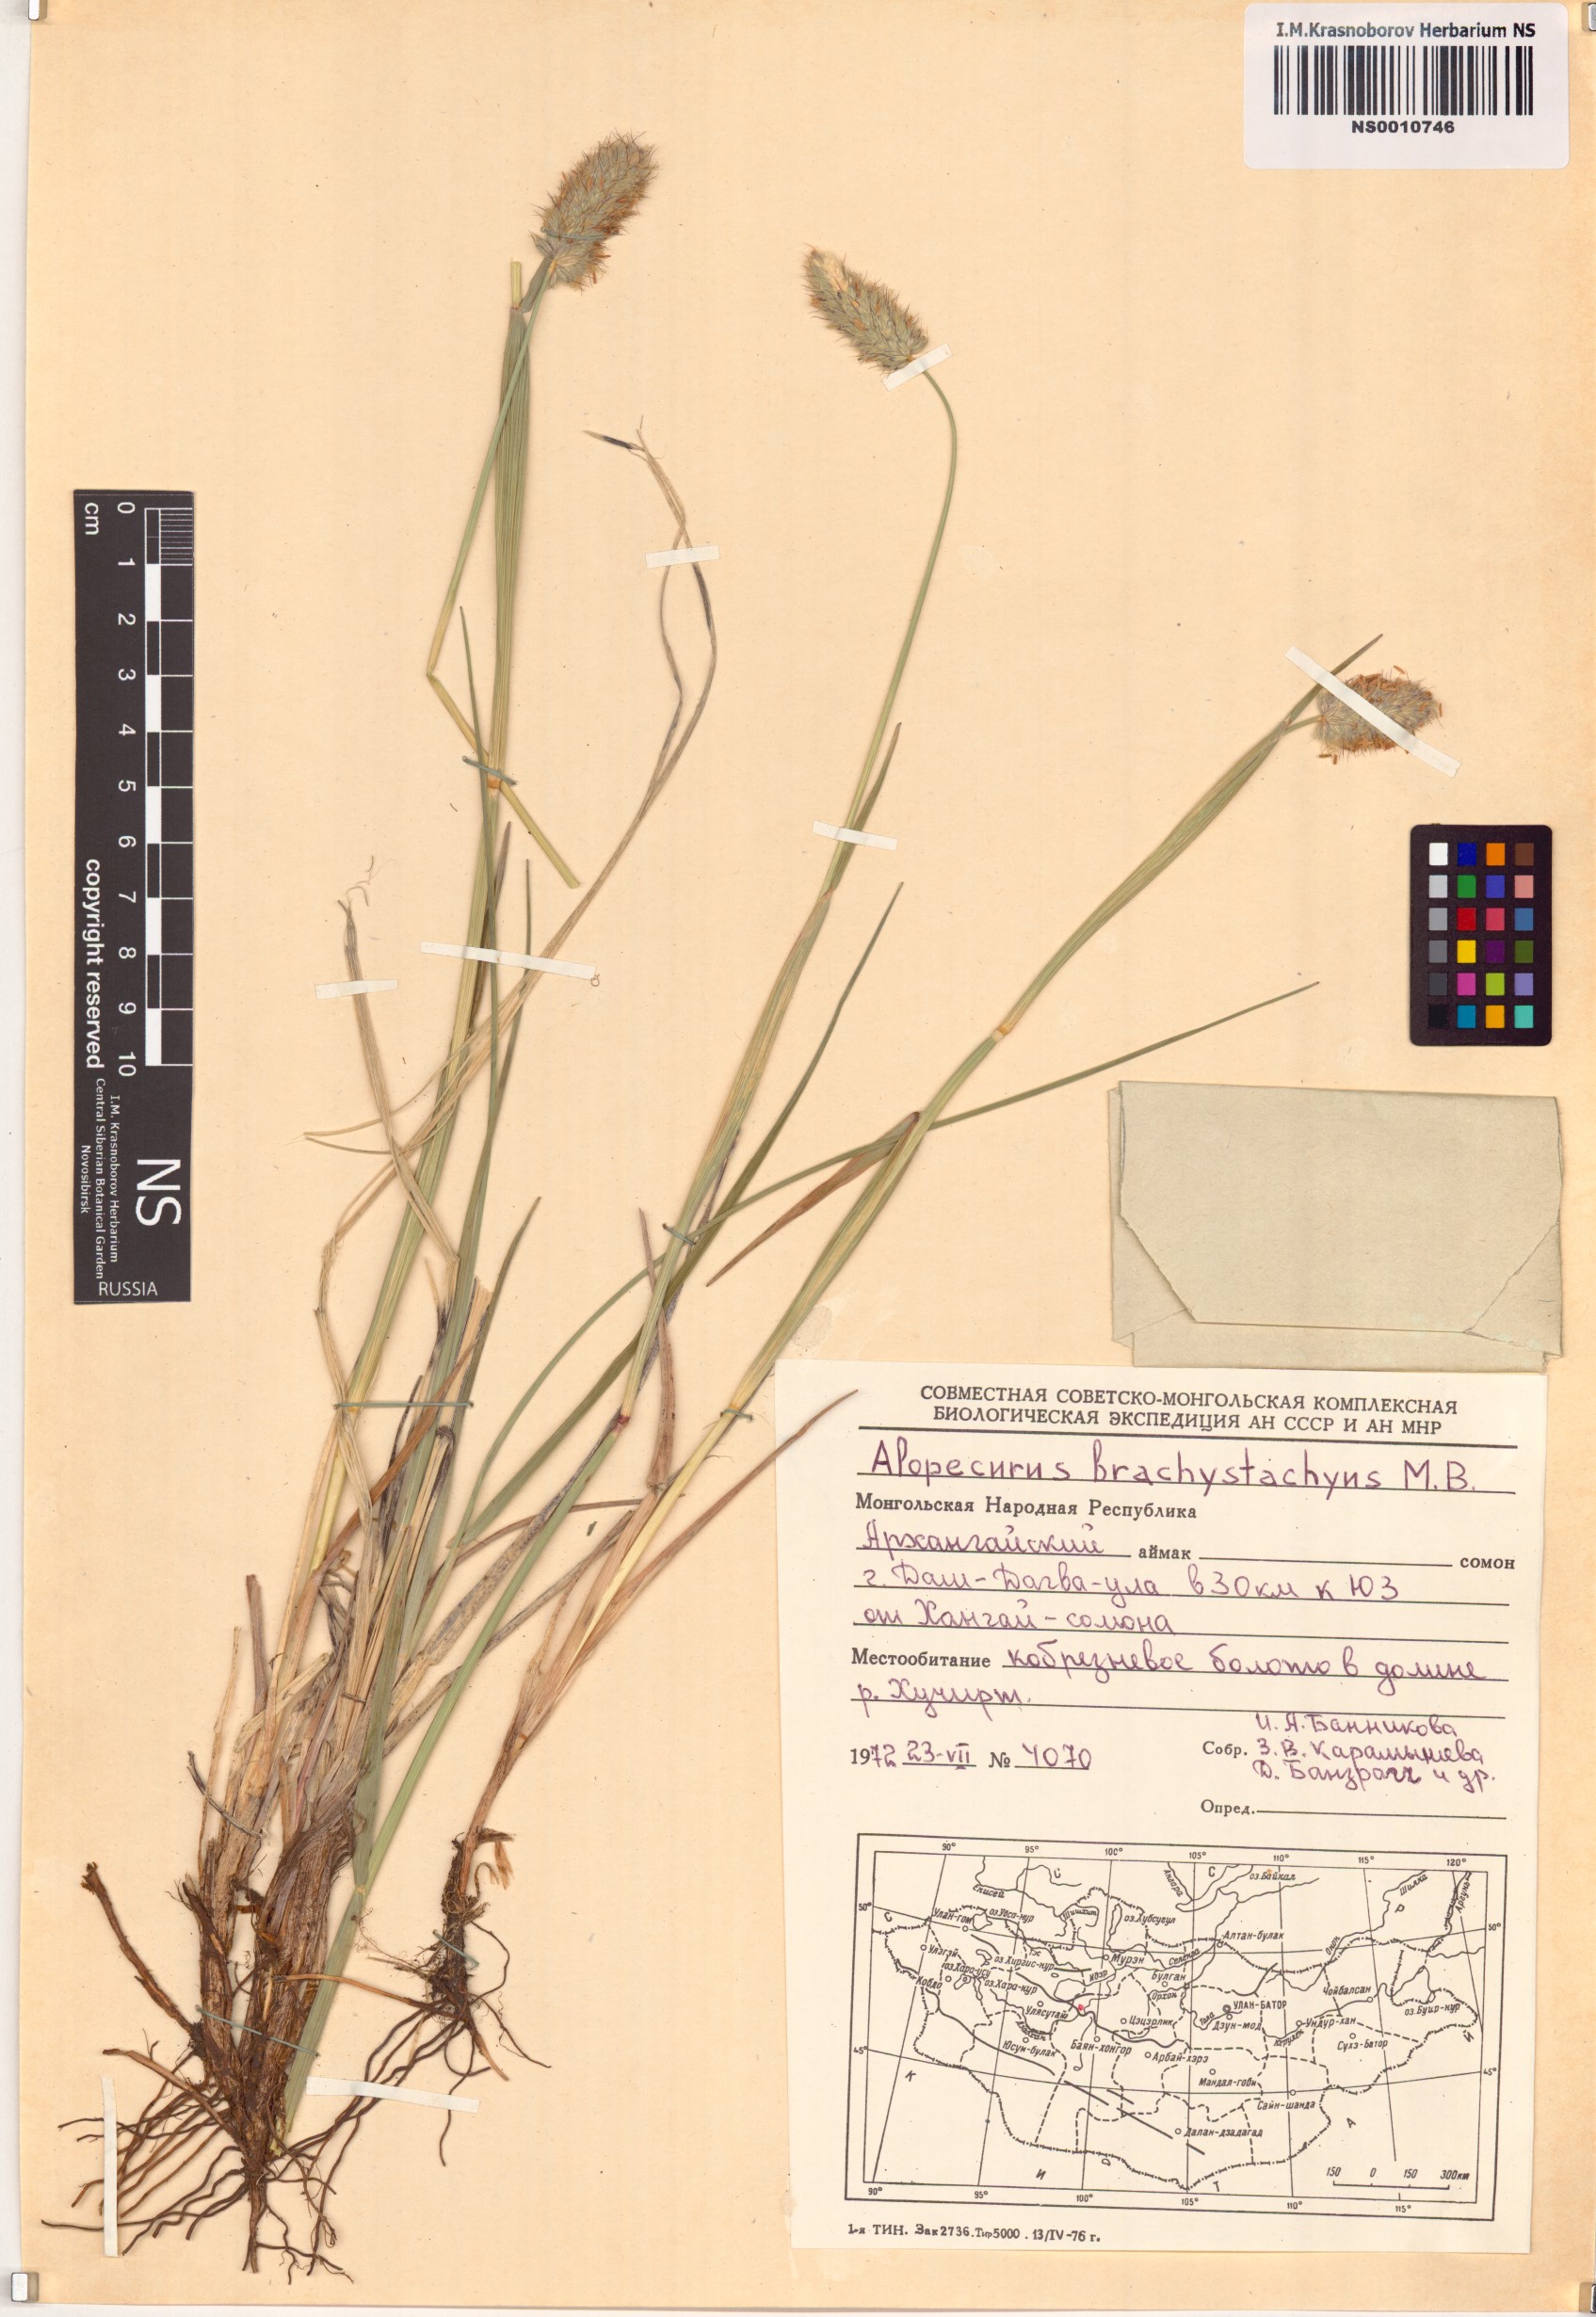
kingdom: Plantae
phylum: Tracheophyta
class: Liliopsida
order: Poales
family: Poaceae
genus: Alopecurus
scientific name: Alopecurus brachystachyus
